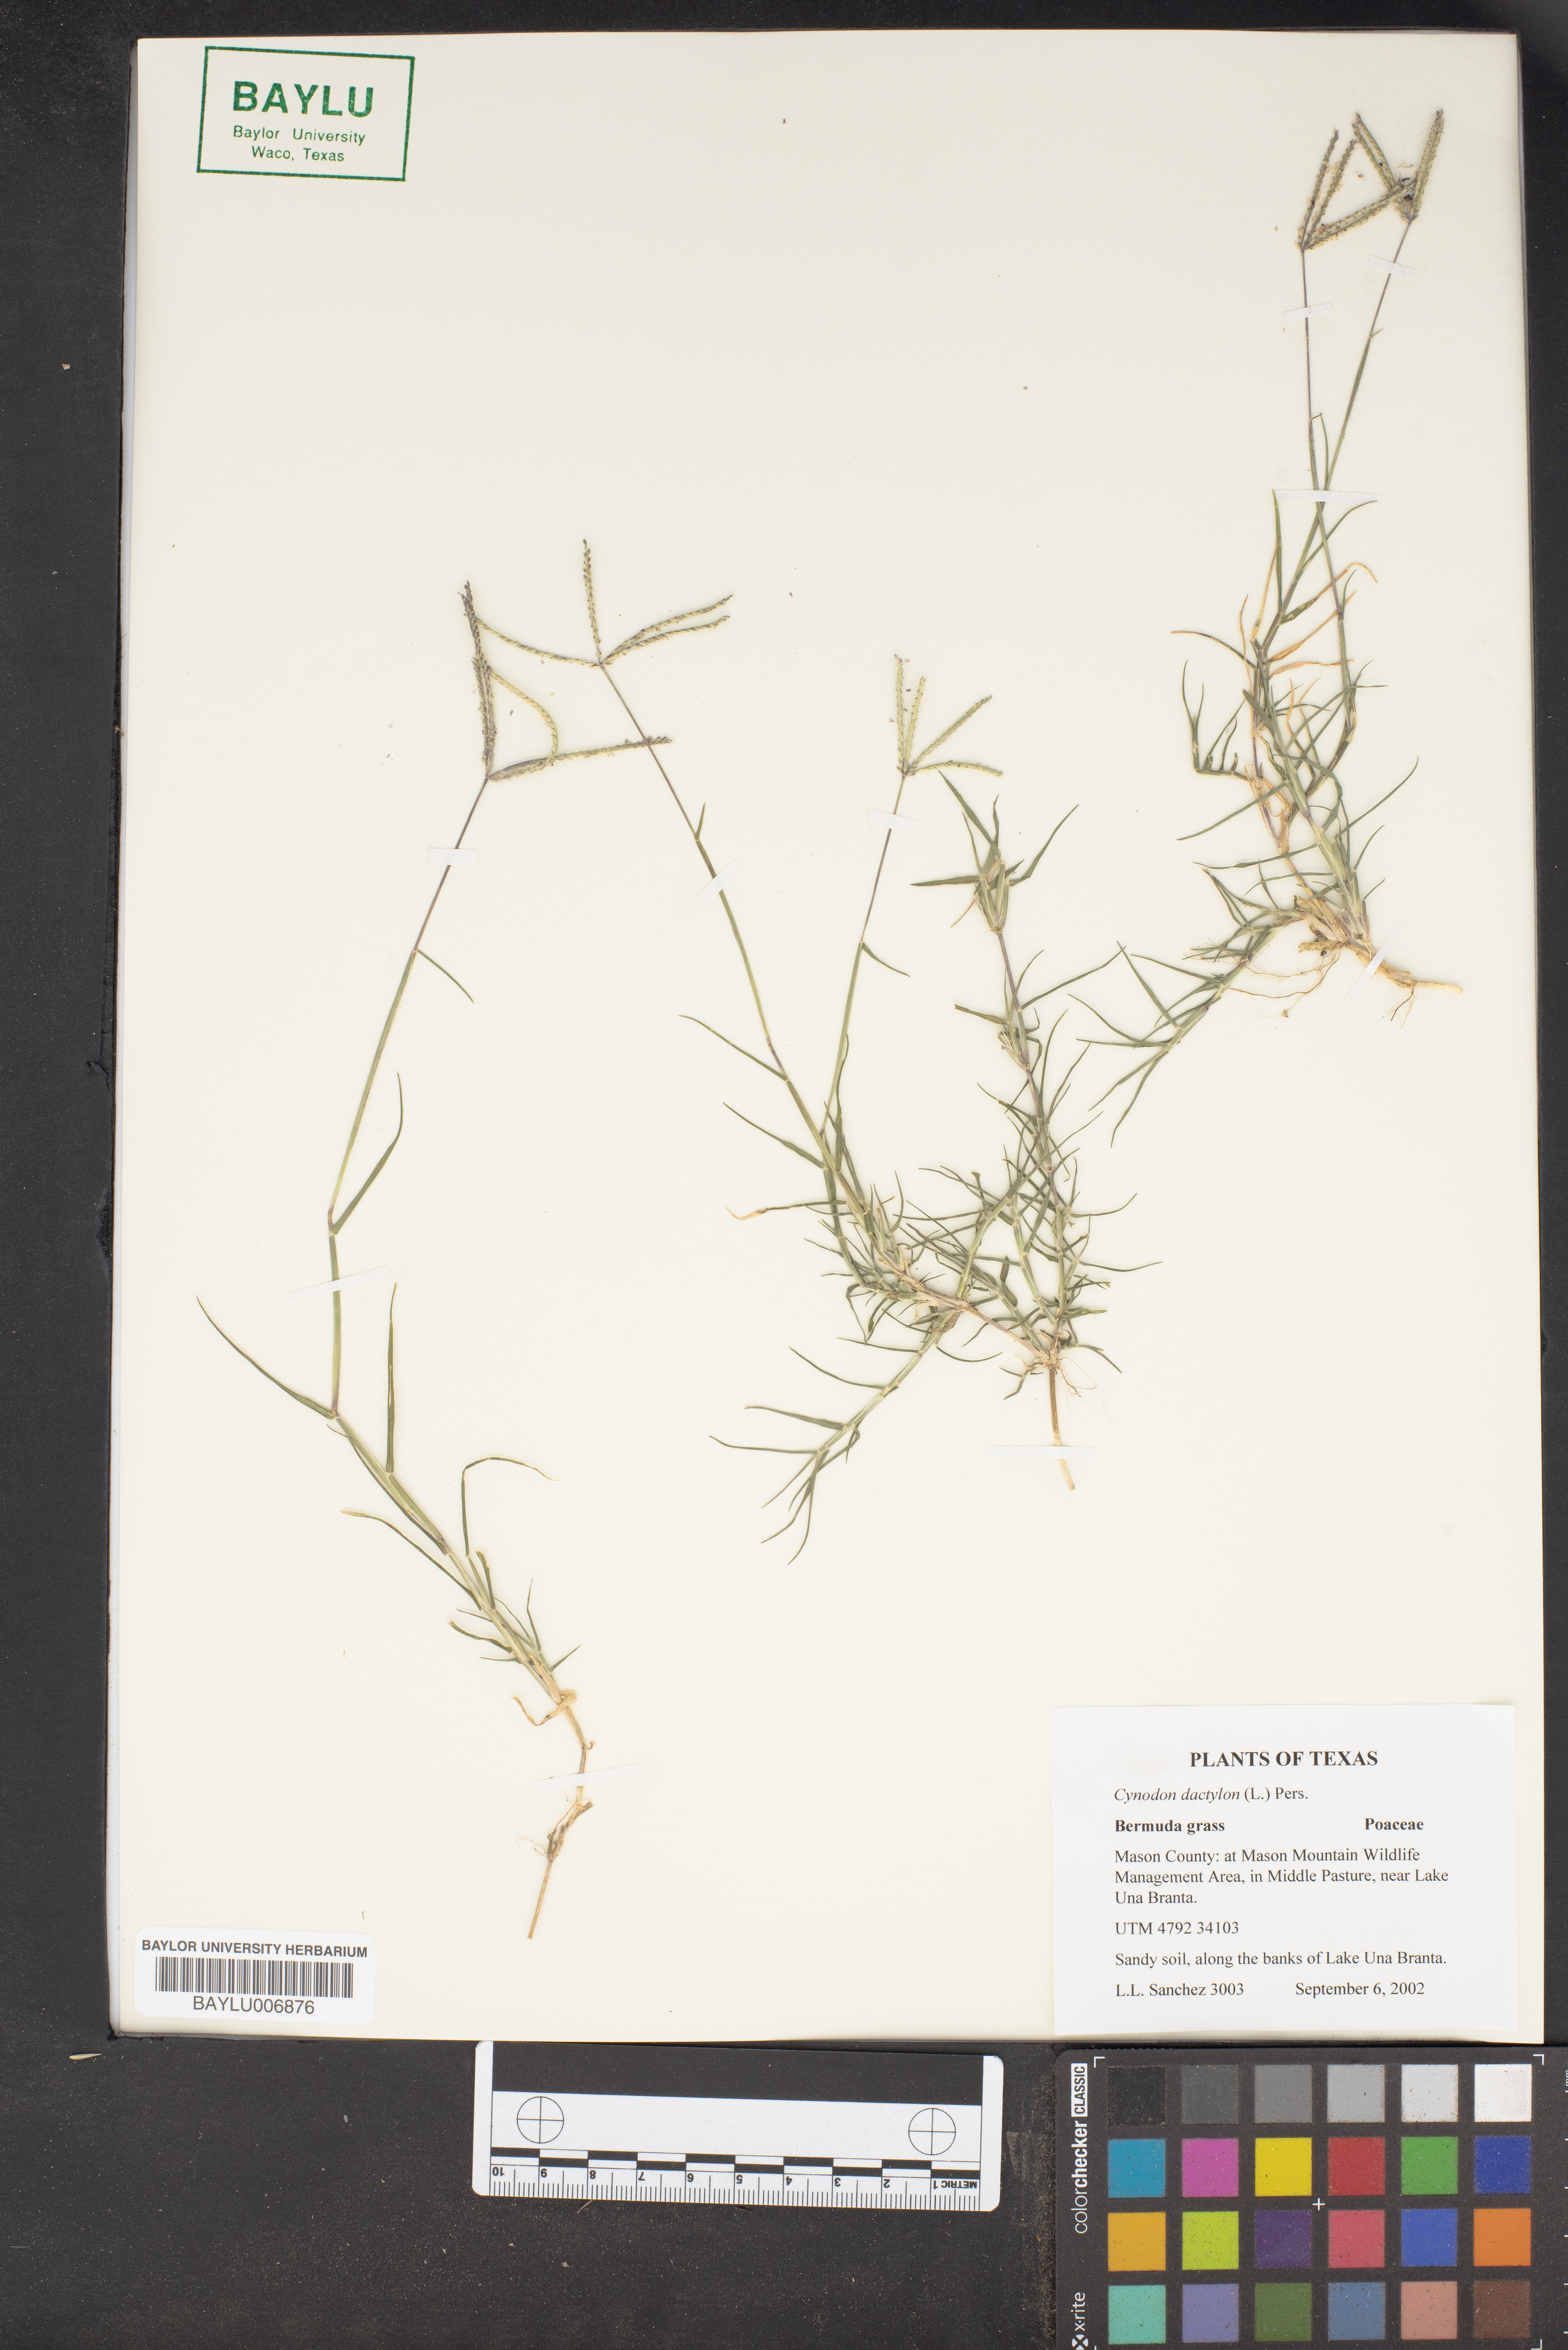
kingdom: Plantae
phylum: Tracheophyta
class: Liliopsida
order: Poales
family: Poaceae
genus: Cynodon
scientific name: Cynodon dactylon
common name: Bermuda grass
